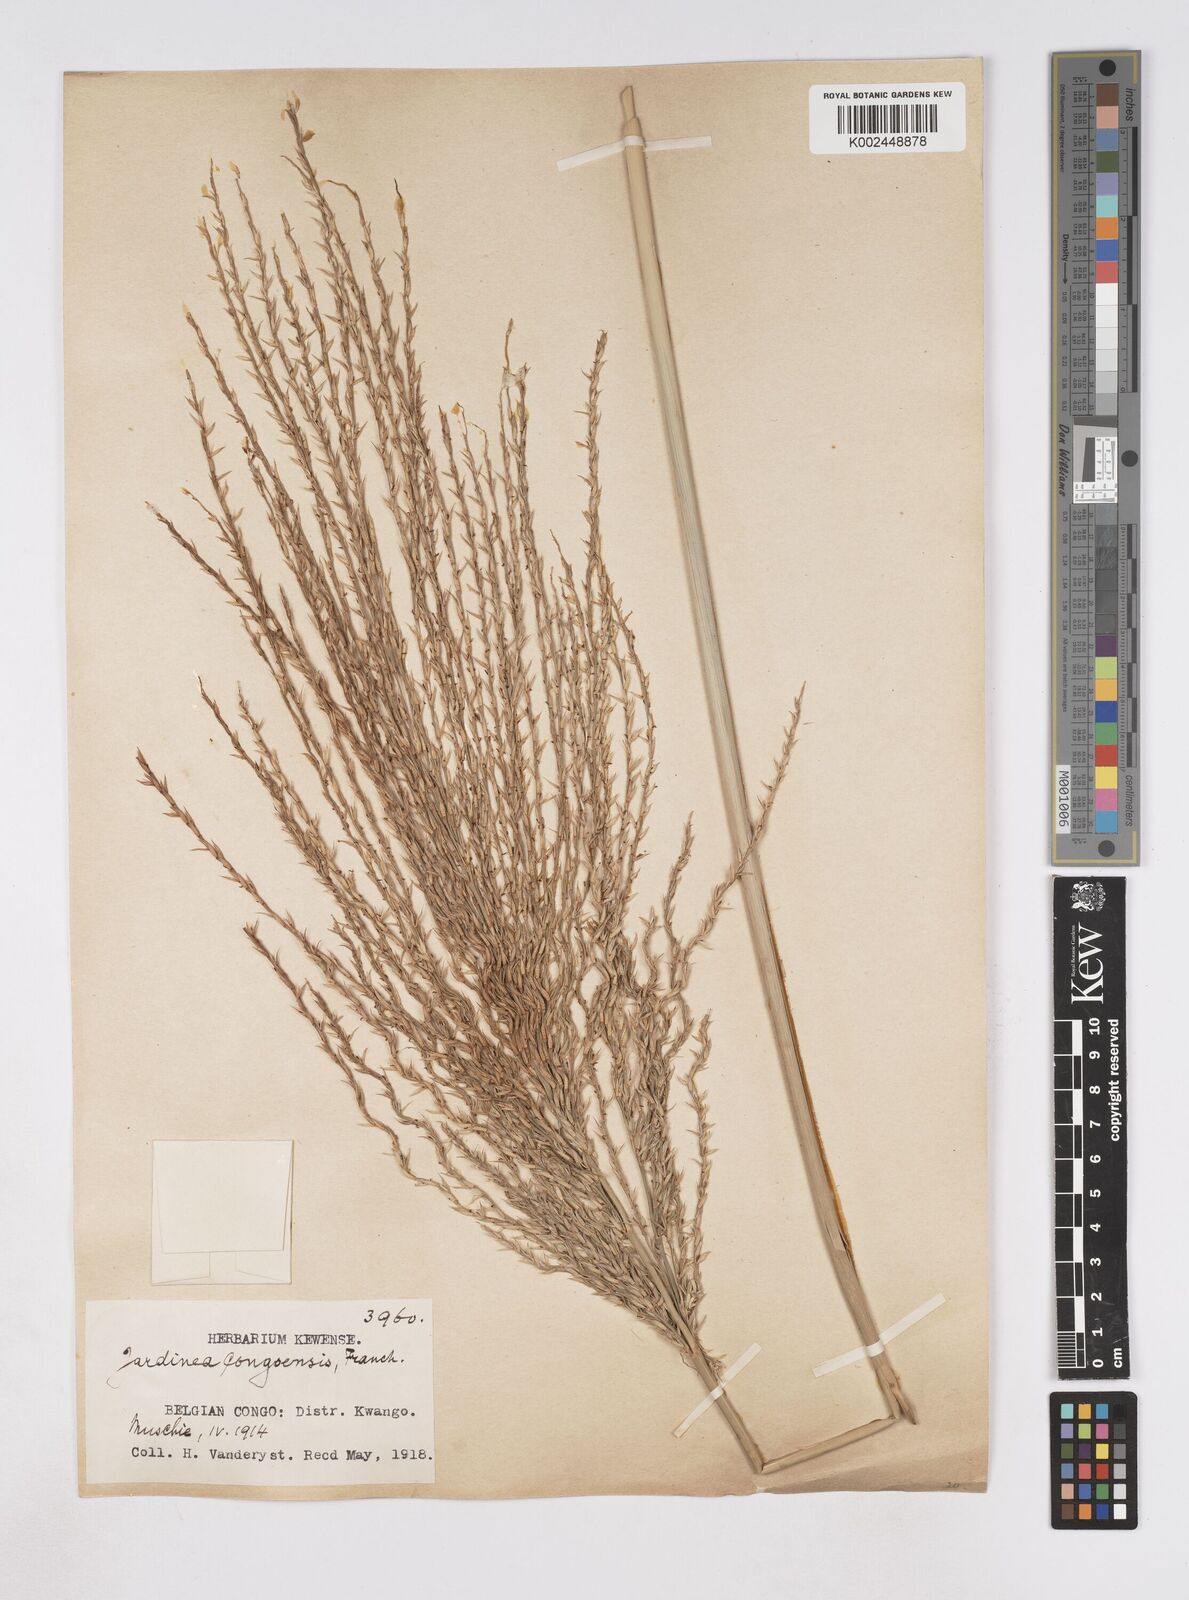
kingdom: Plantae
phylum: Tracheophyta
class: Liliopsida
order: Poales
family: Poaceae
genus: Phacelurus
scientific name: Phacelurus gabonensis
